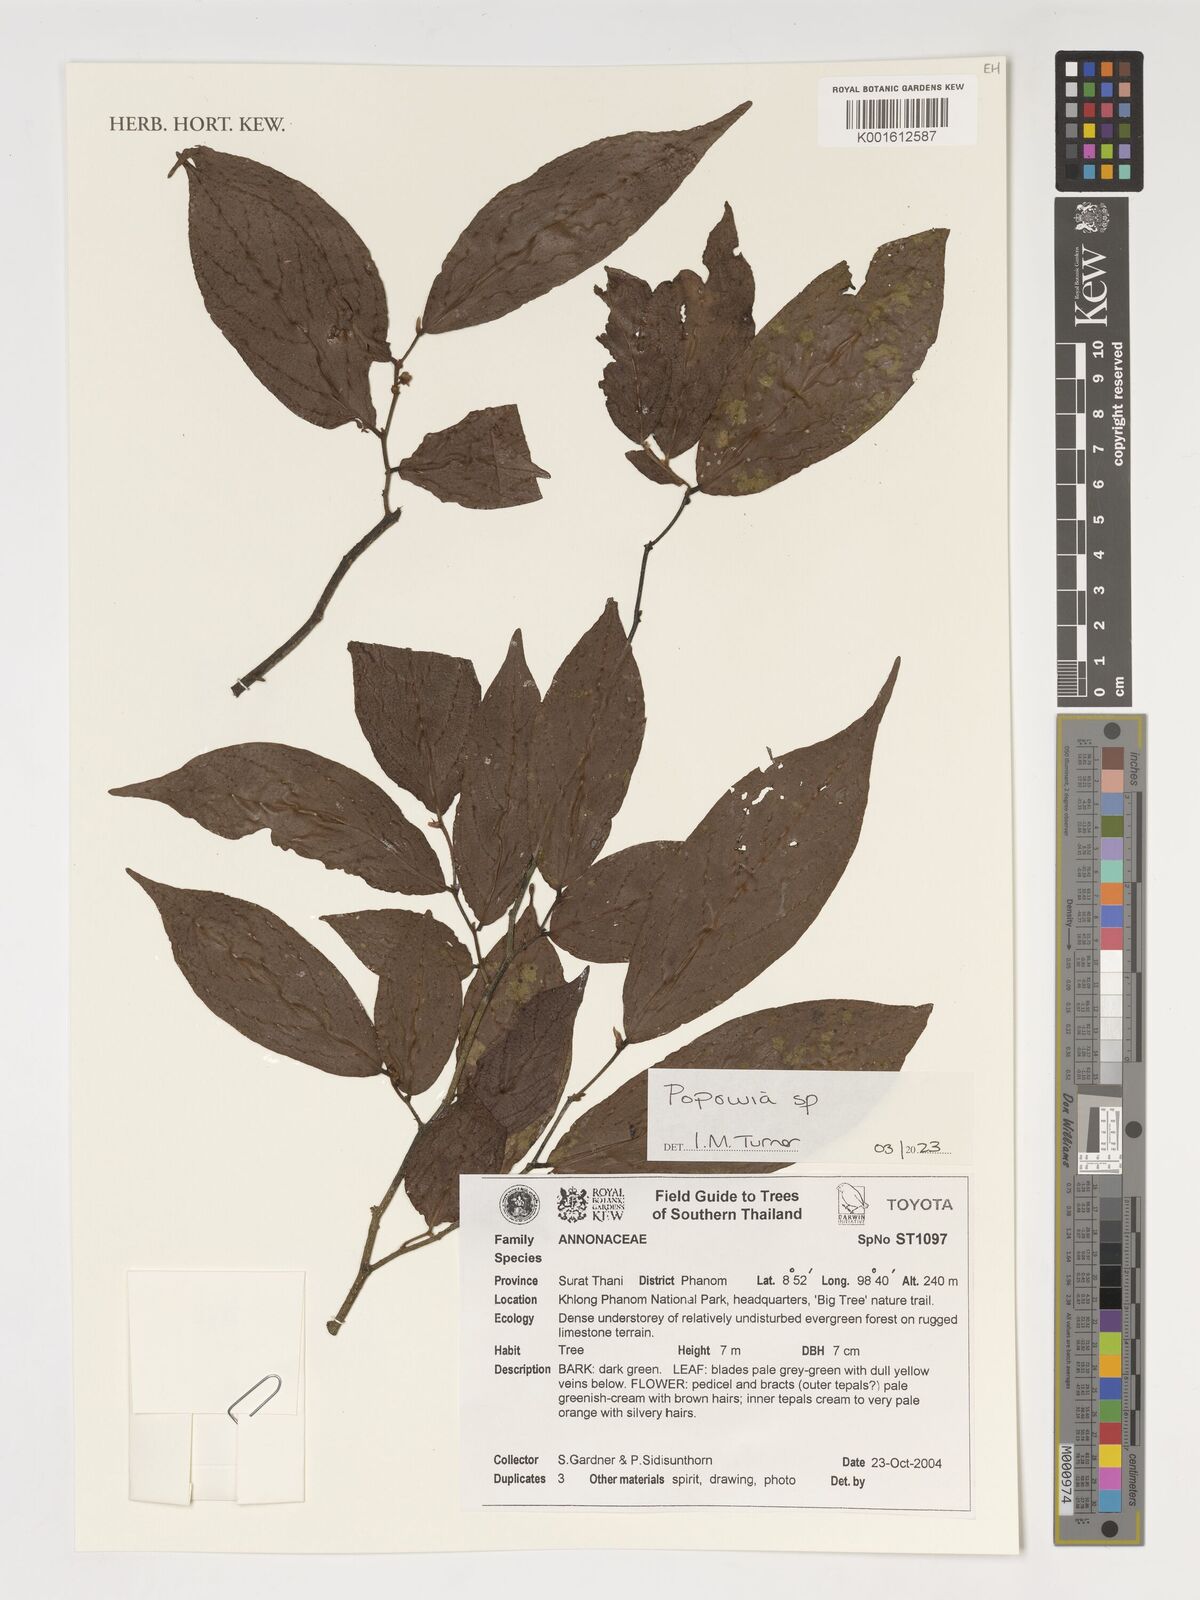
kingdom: Plantae
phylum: Tracheophyta
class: Magnoliopsida
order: Magnoliales
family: Annonaceae
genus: Popowia
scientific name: Popowia
